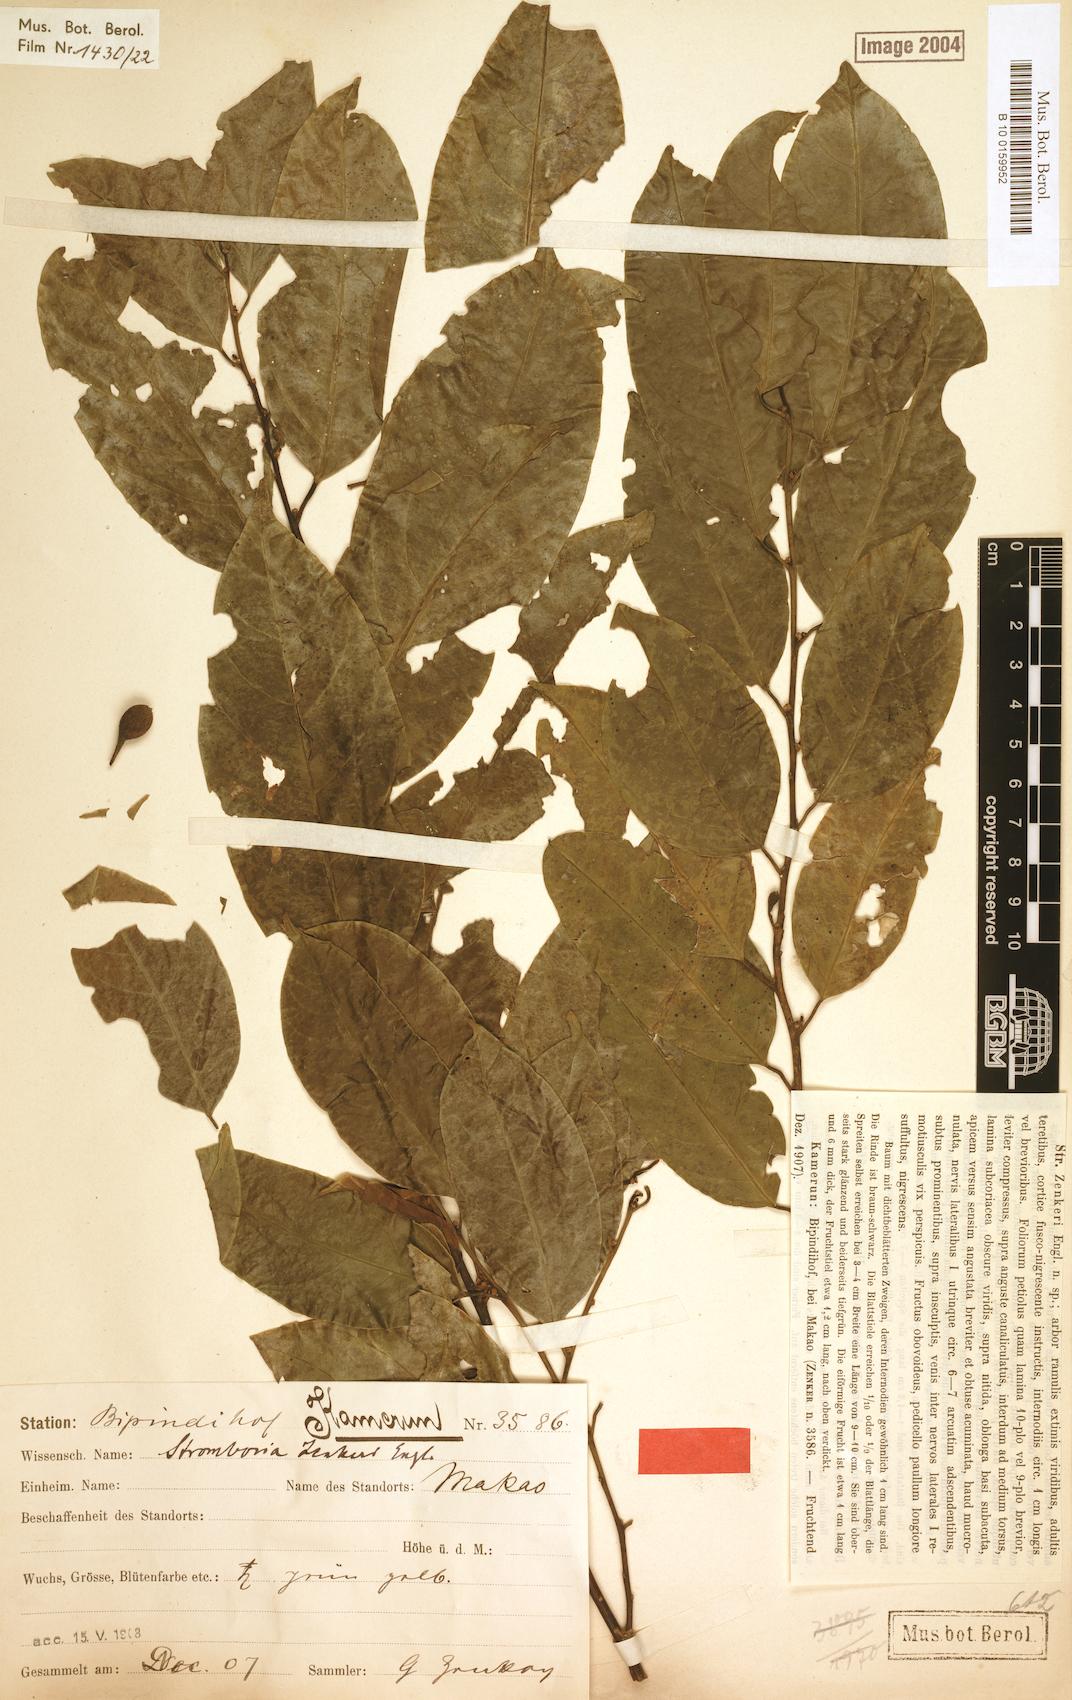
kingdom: Plantae
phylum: Tracheophyta
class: Magnoliopsida
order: Santalales
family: Strombosiaceae
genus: Strombosia
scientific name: Strombosia zenkeri
